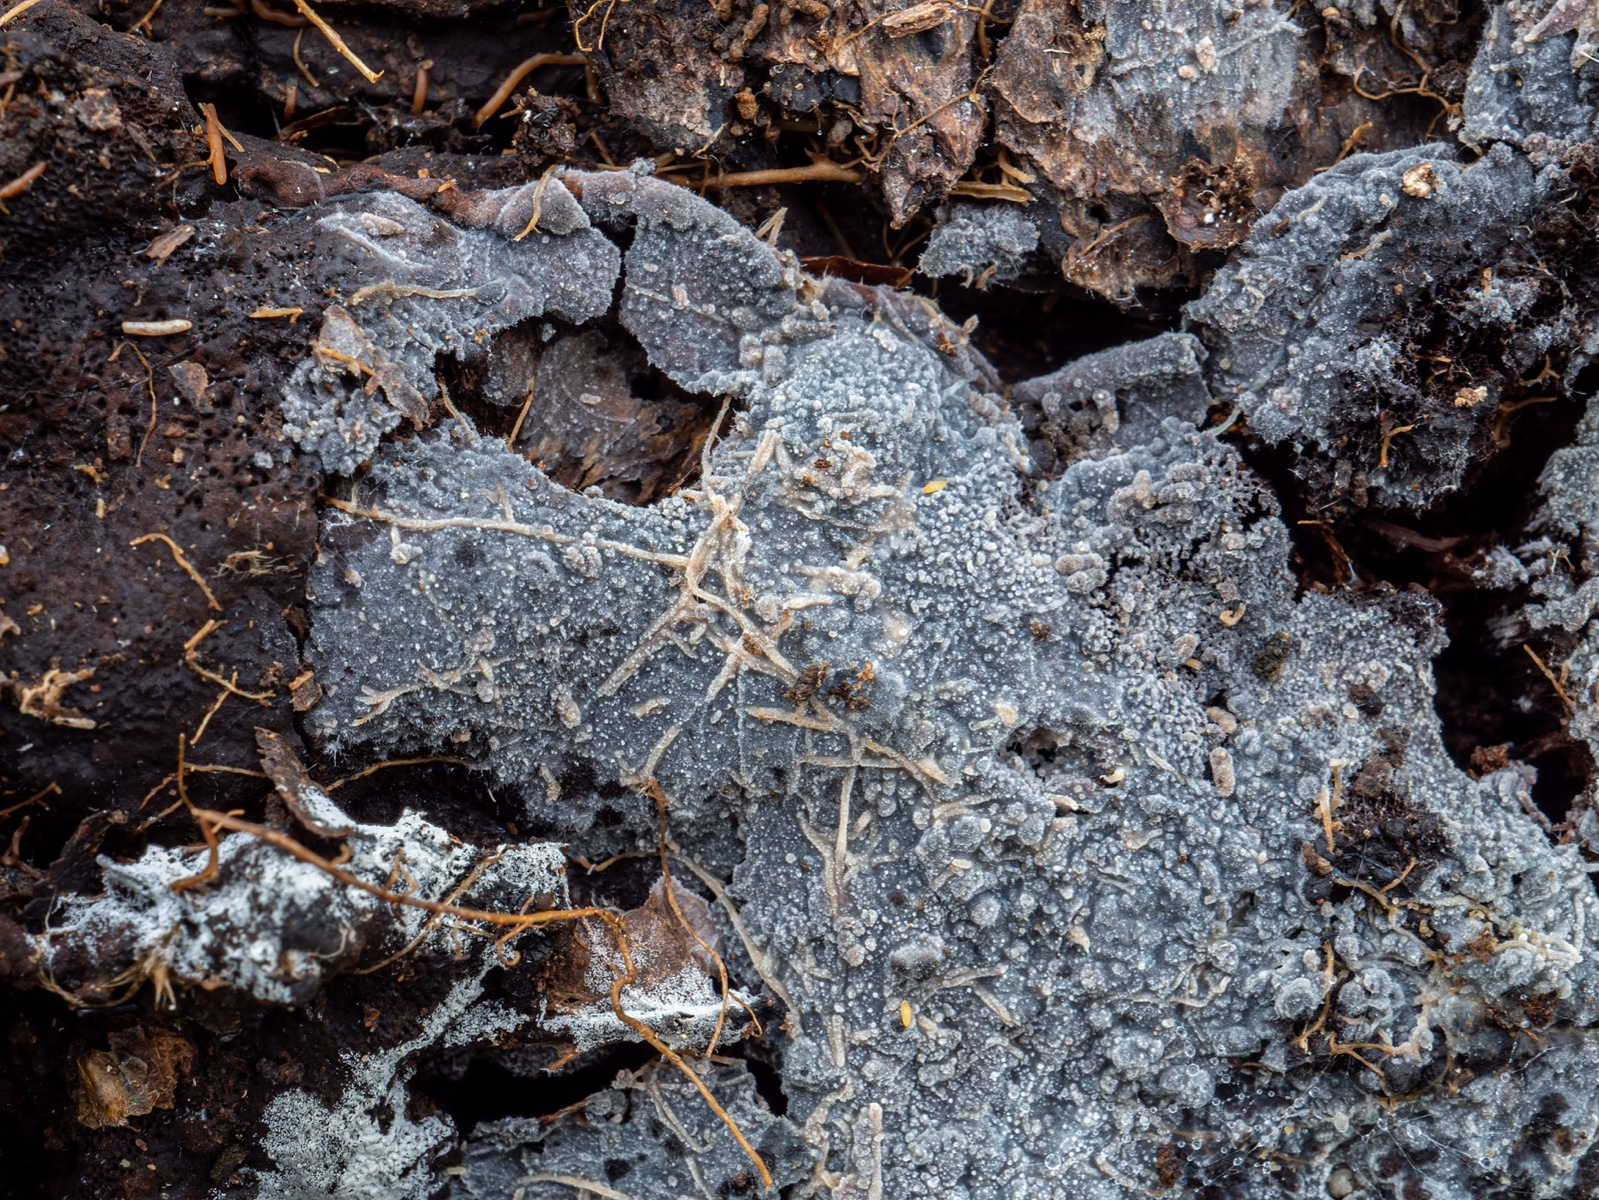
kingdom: Fungi
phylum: Basidiomycota
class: Agaricomycetes
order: Polyporales
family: Meruliaceae
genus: Scopuloides
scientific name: Scopuloides rimosa
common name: dughinde
